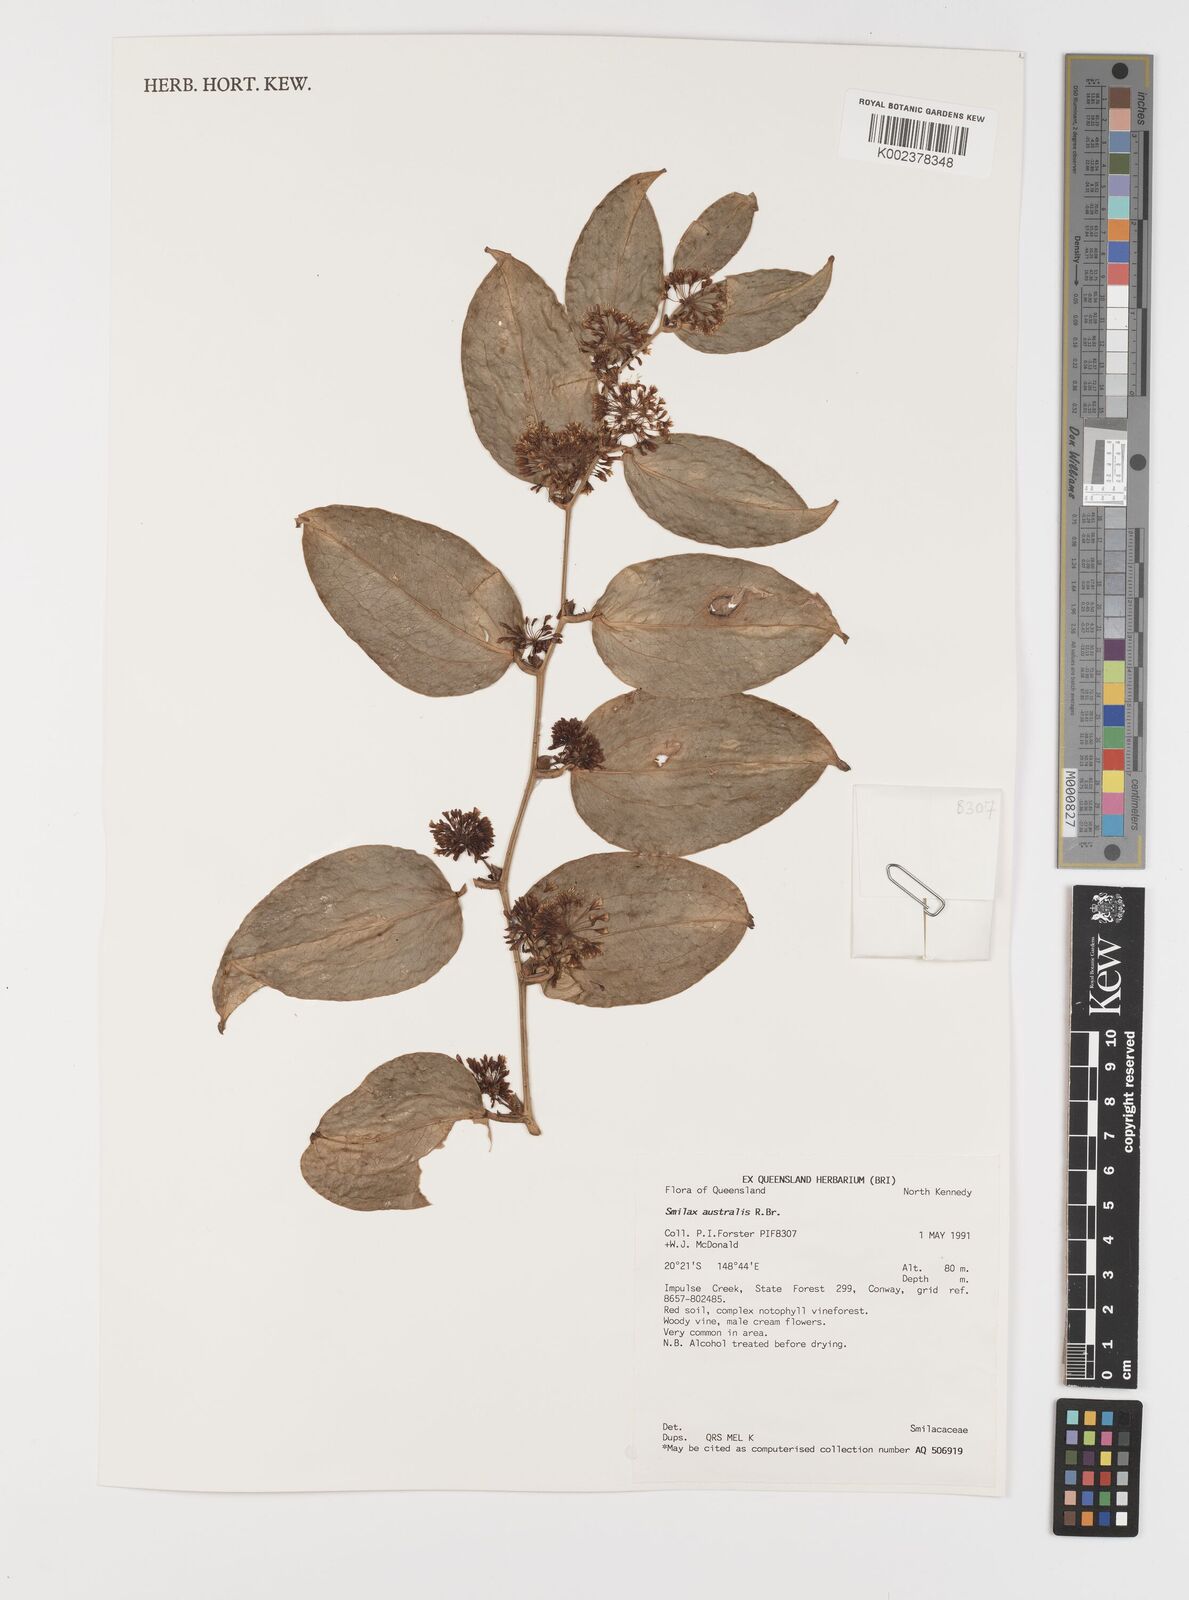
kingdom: Plantae
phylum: Tracheophyta
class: Liliopsida
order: Liliales
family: Smilacaceae
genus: Smilax
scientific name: Smilax australis
